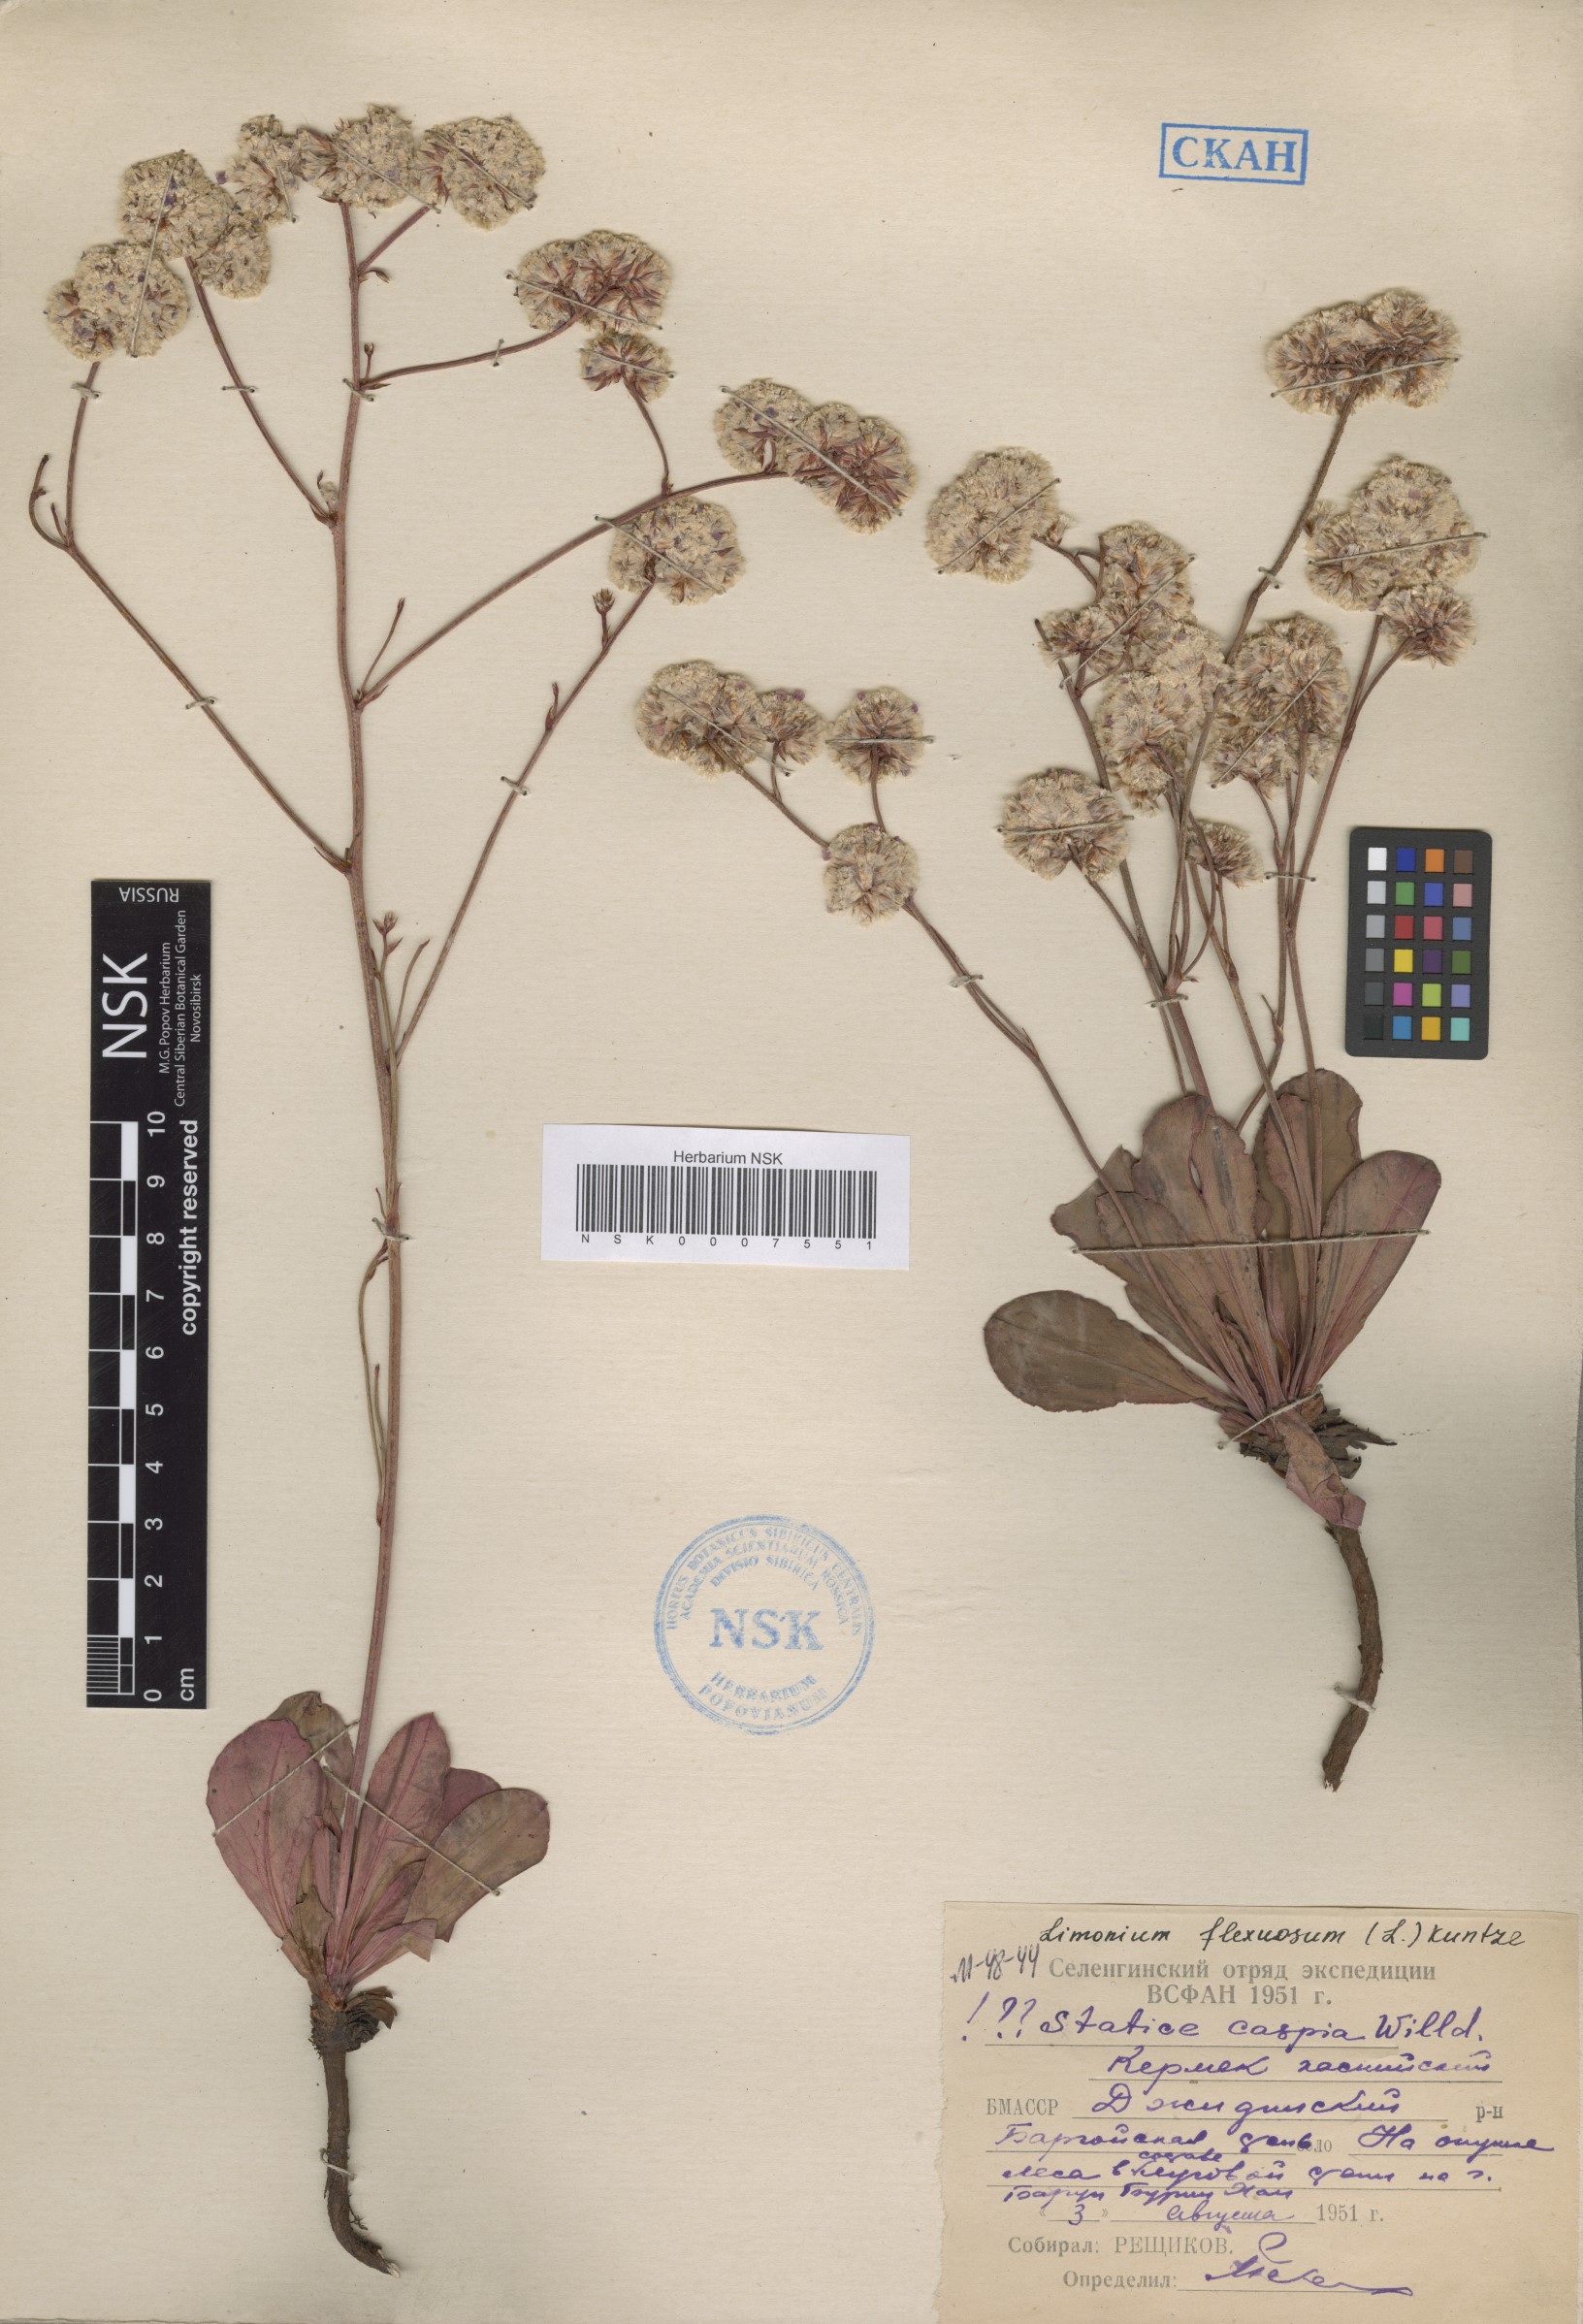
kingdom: Plantae
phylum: Tracheophyta
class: Magnoliopsida
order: Caryophyllales
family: Plumbaginaceae
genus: Limonium
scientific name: Limonium flexuosum
